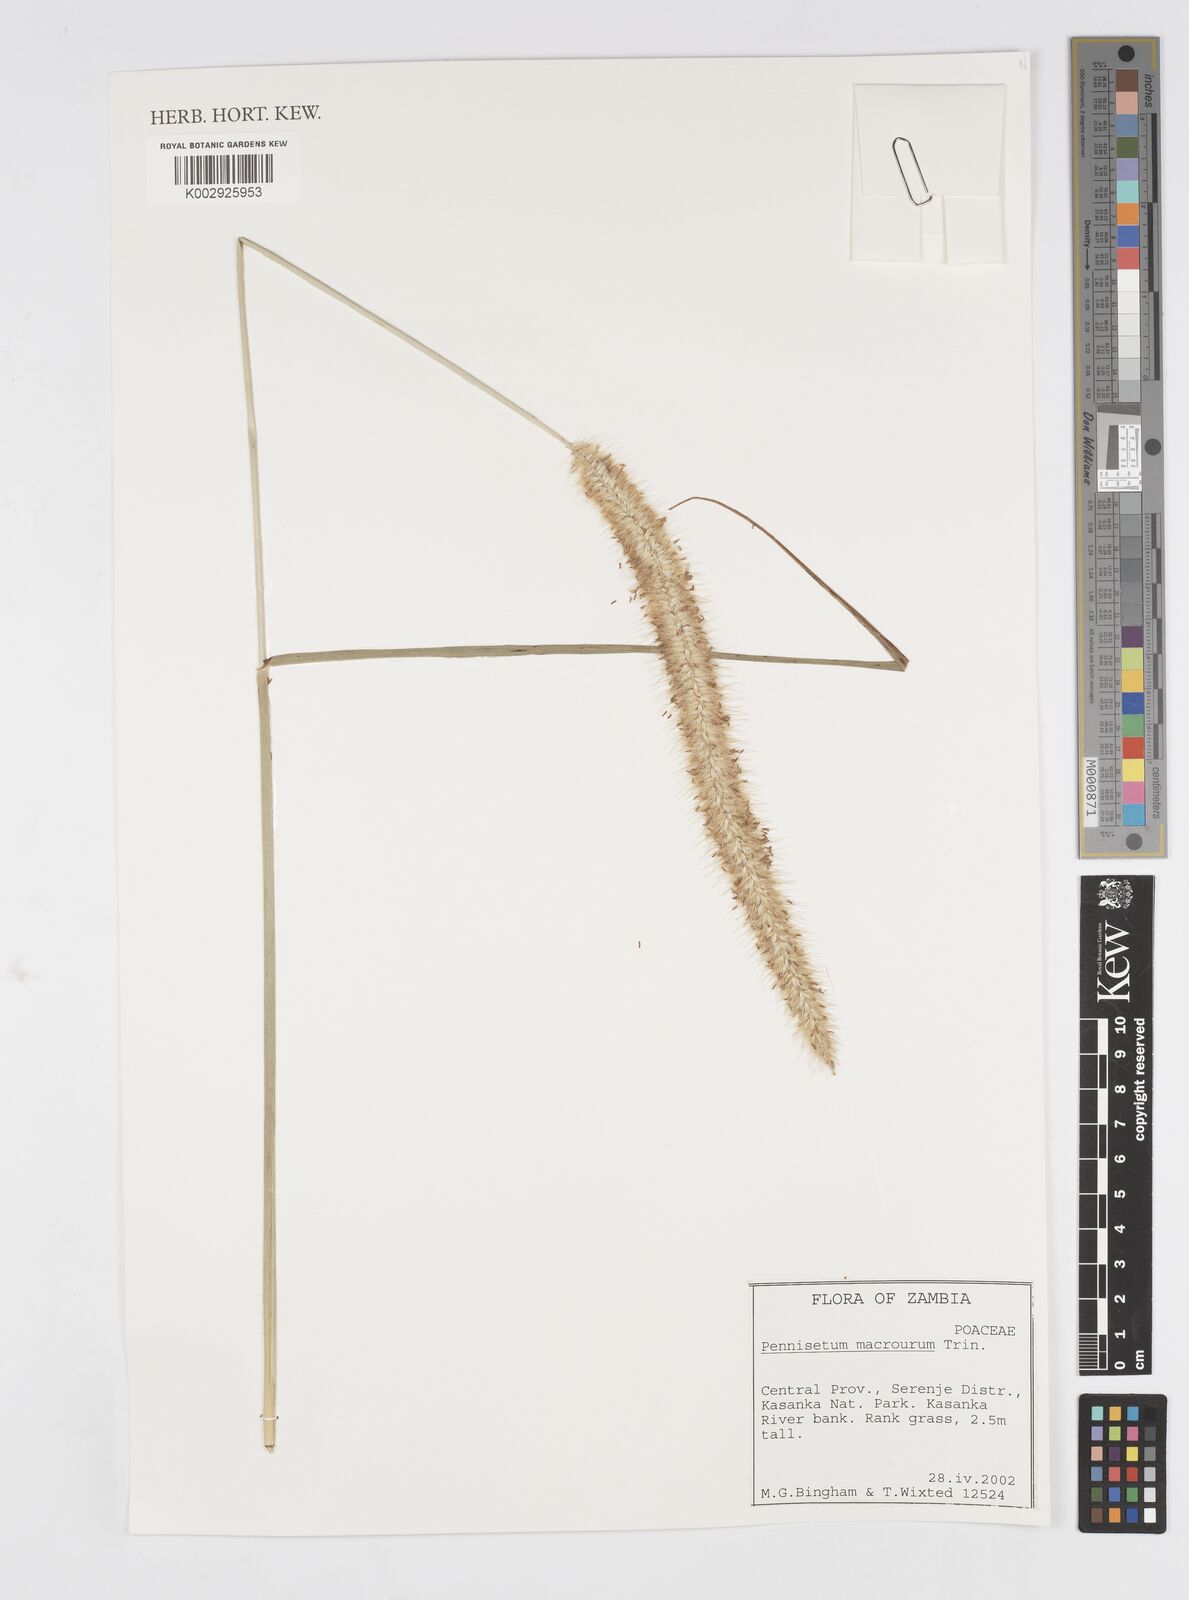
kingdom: Plantae
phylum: Tracheophyta
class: Liliopsida
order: Poales
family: Poaceae
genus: Cenchrus
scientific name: Cenchrus caudatus
